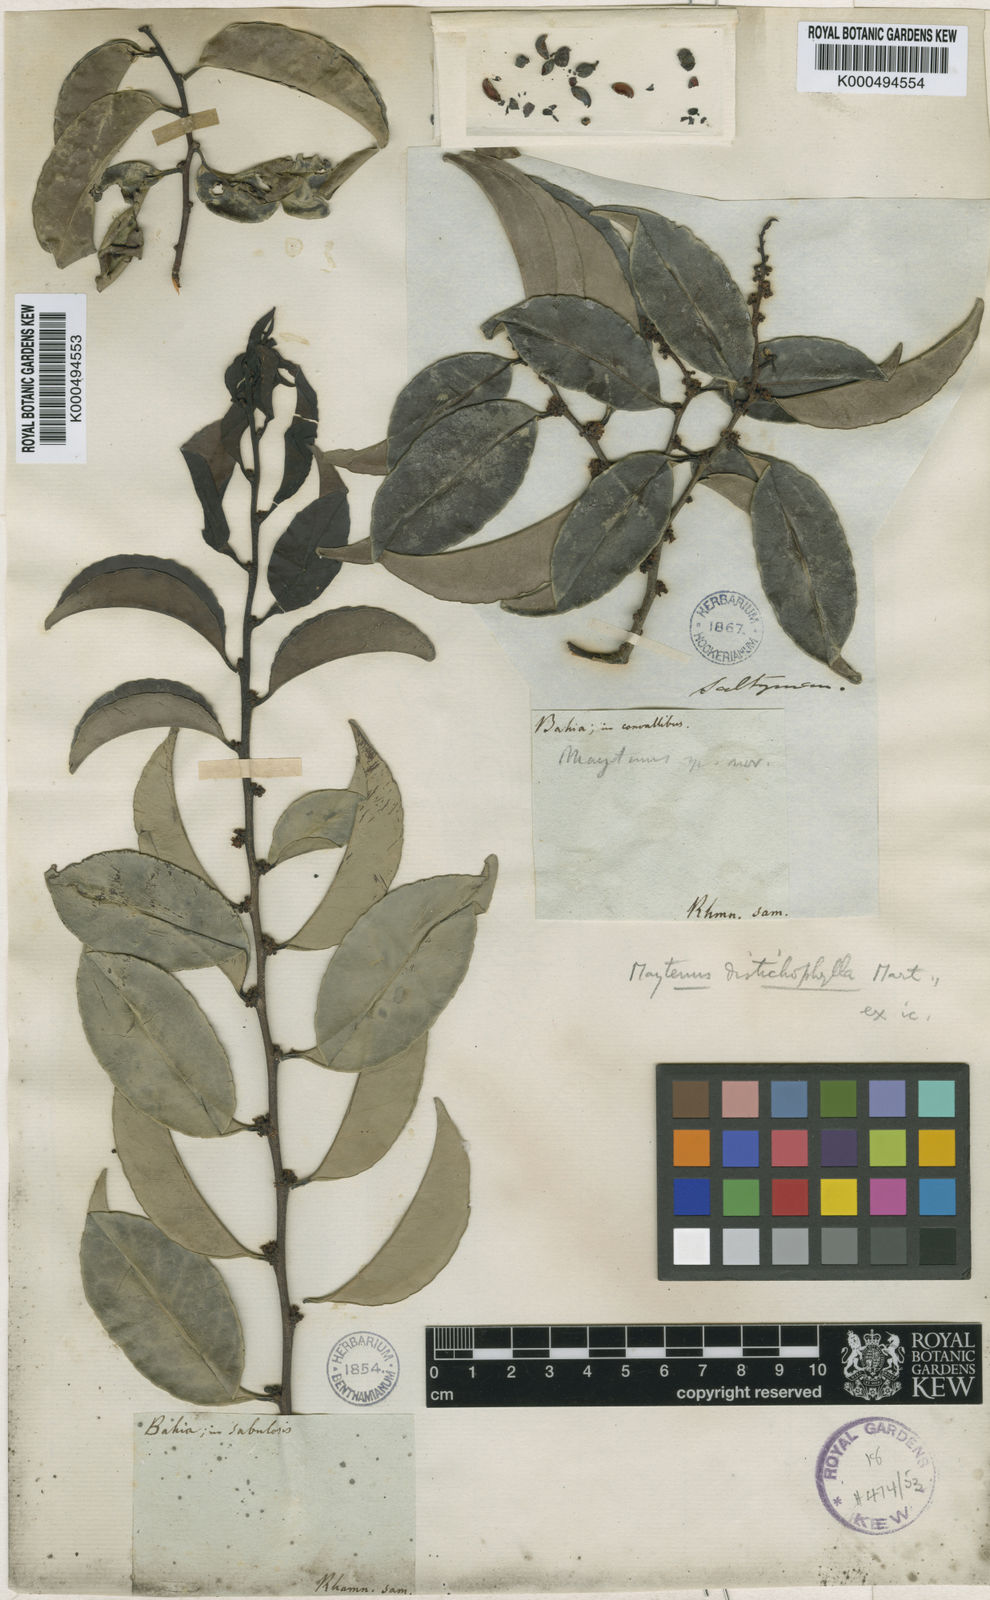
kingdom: Plantae
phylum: Tracheophyta
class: Magnoliopsida
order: Celastrales
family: Celastraceae
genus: Monteverdia
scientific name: Monteverdia distichophylla
